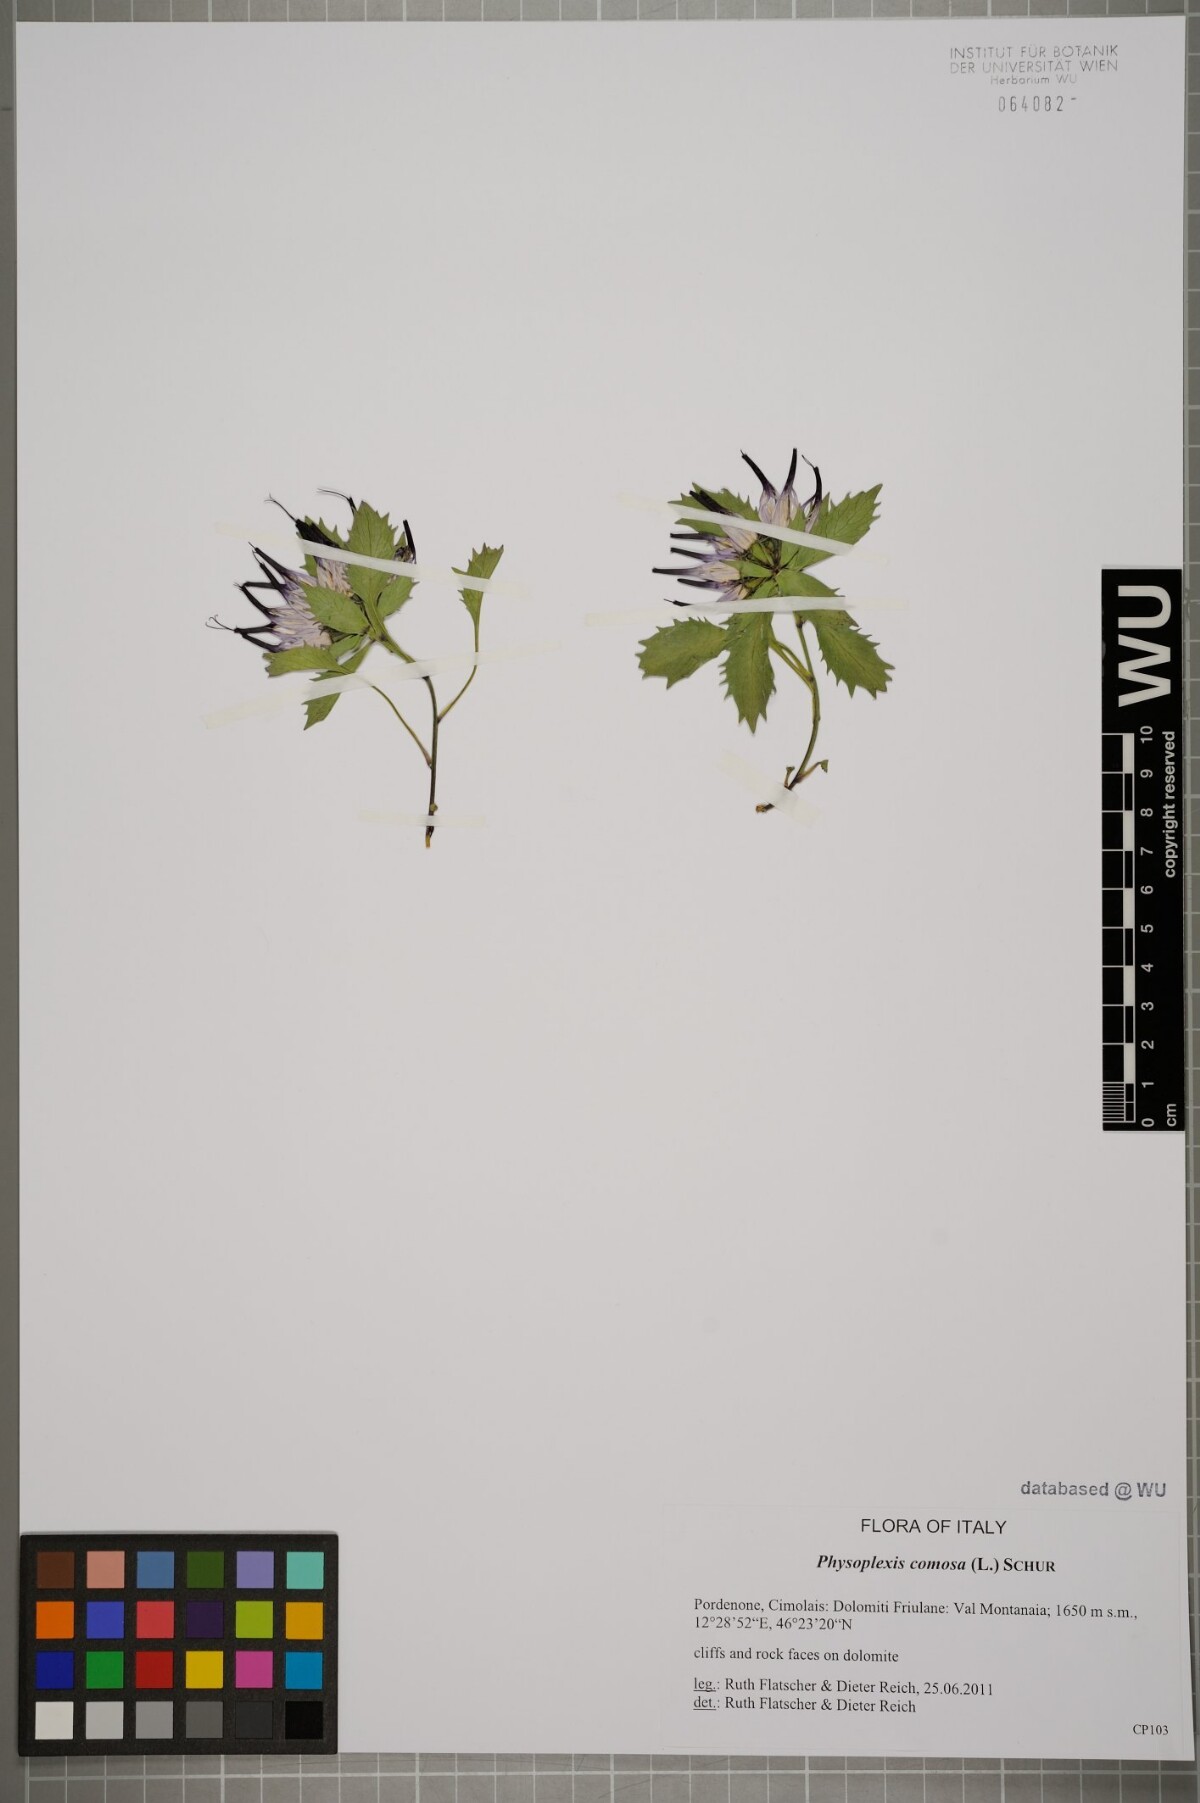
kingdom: Plantae
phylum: Tracheophyta
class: Magnoliopsida
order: Asterales
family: Campanulaceae
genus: Physoplexis
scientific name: Physoplexis comosa
